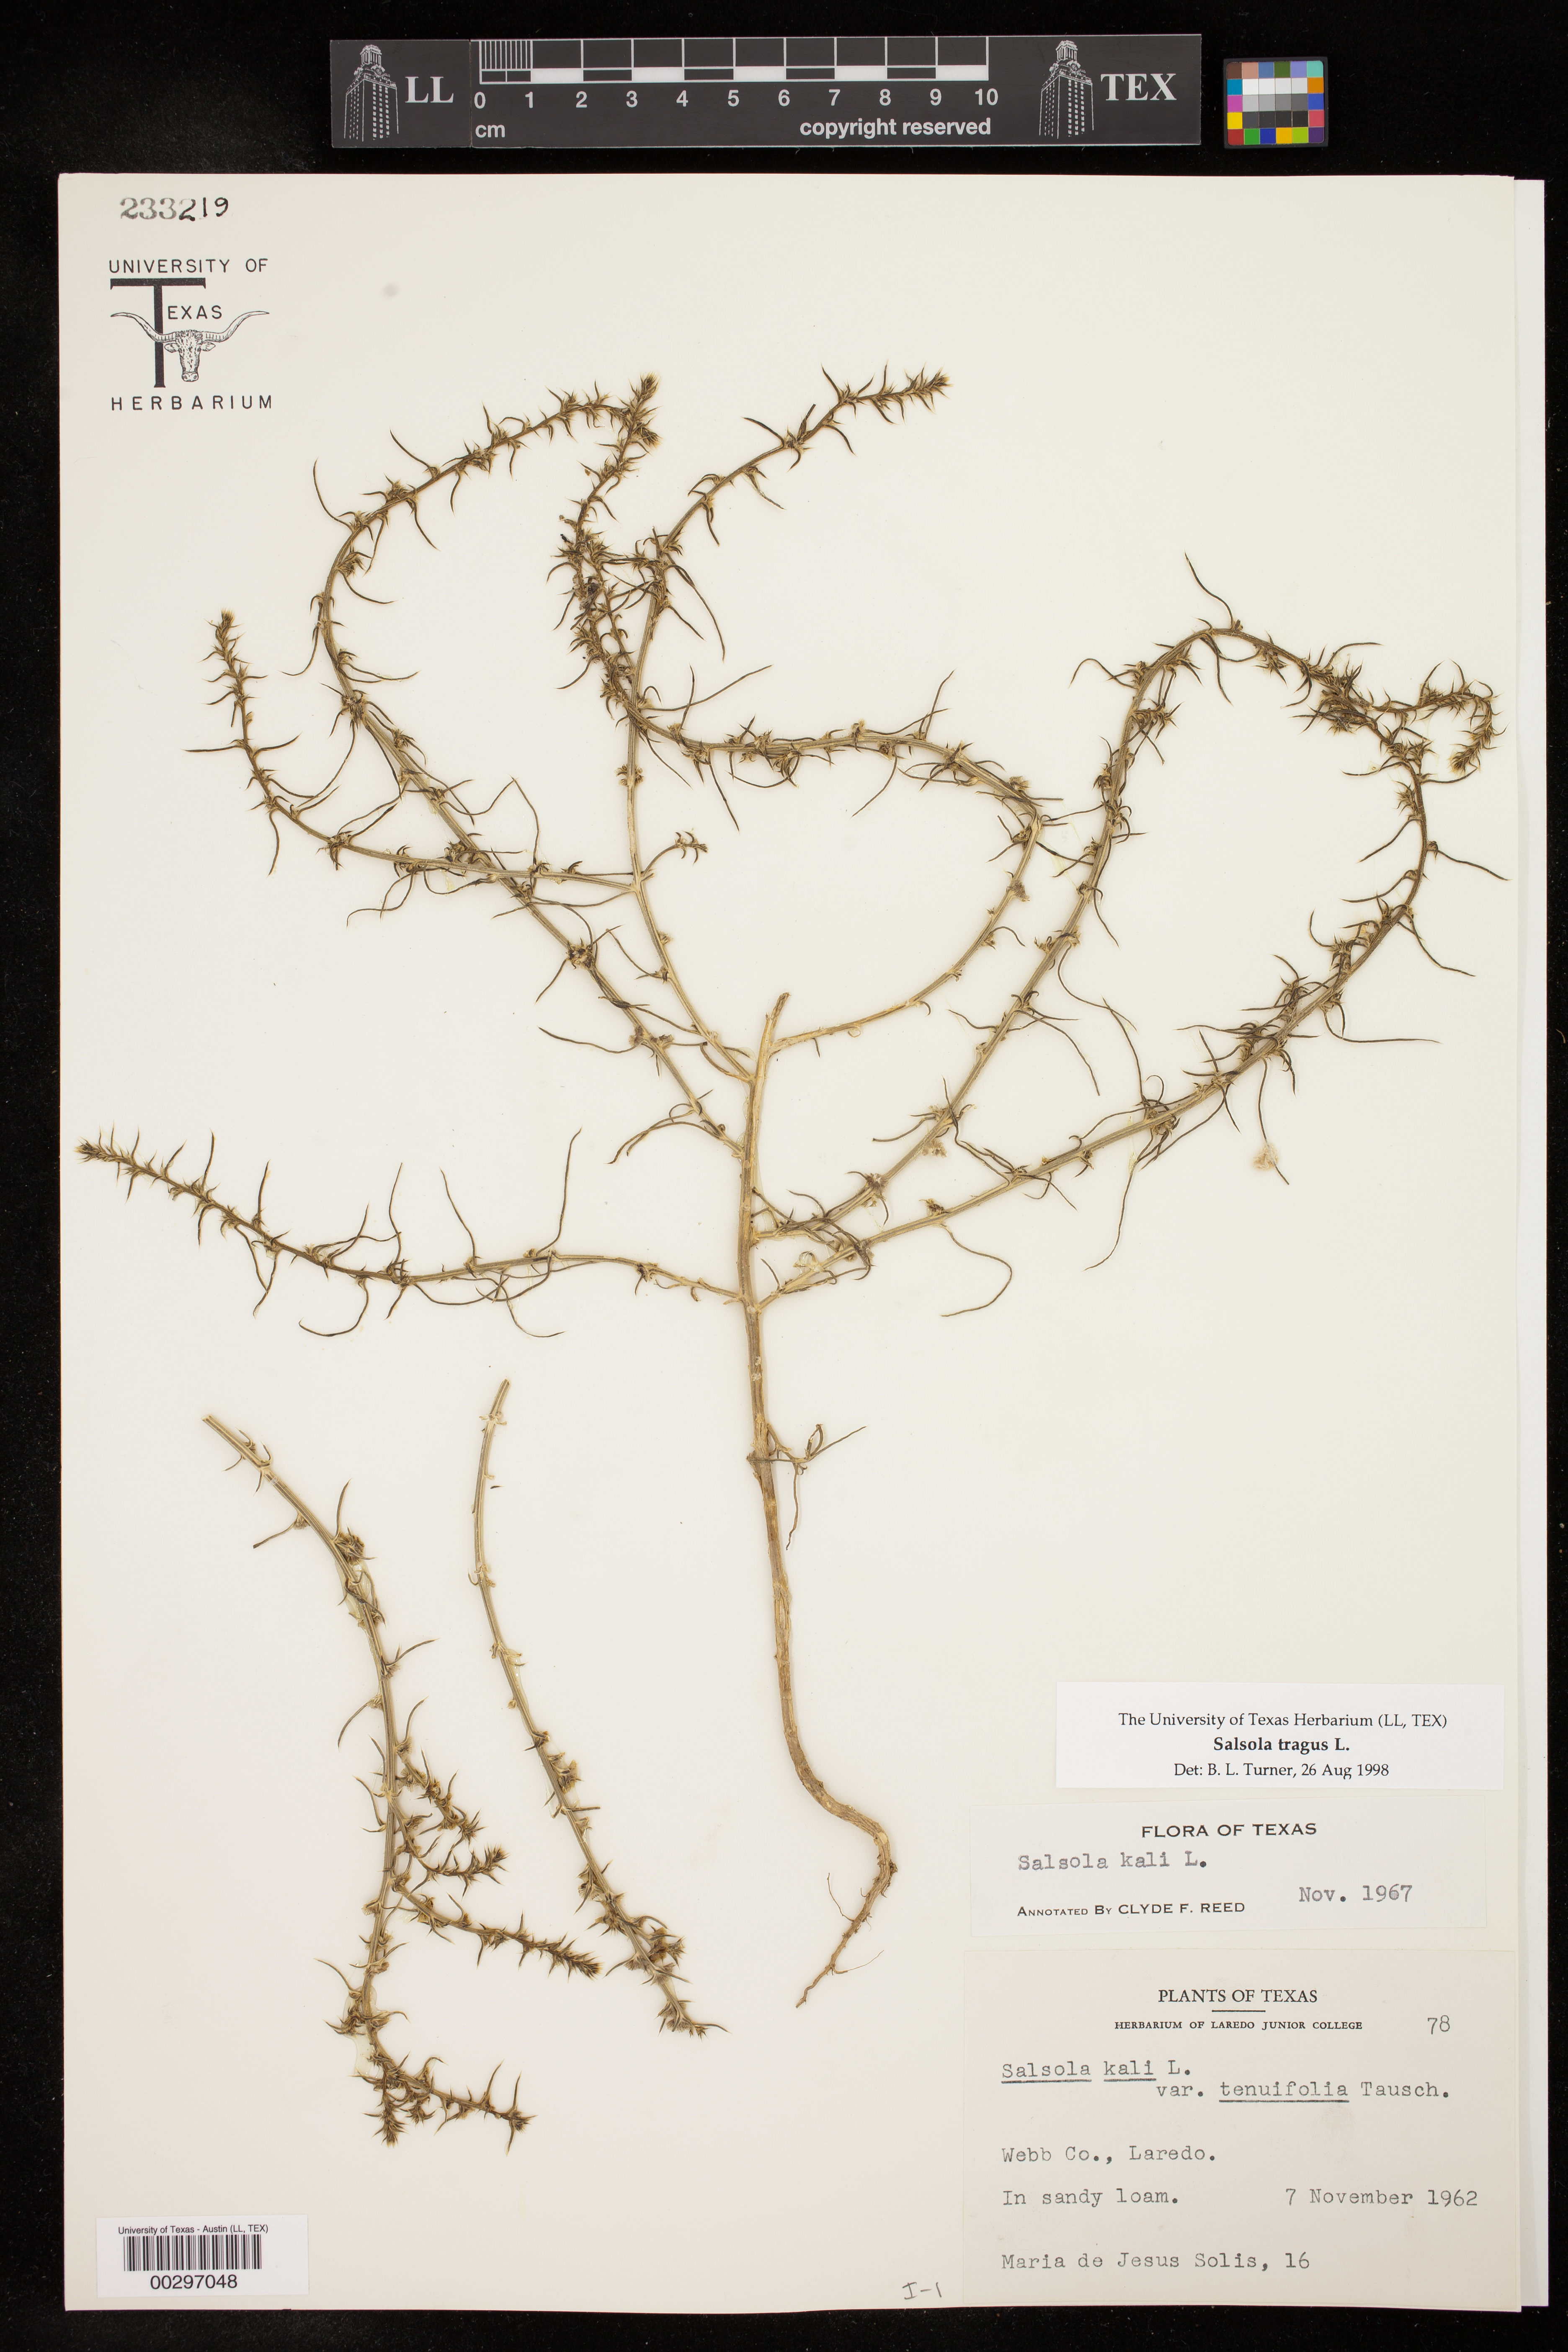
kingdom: Plantae
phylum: Tracheophyta
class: Magnoliopsida
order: Caryophyllales
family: Amaranthaceae
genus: Salsola
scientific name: Salsola tragus
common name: Prickly russian thistle
